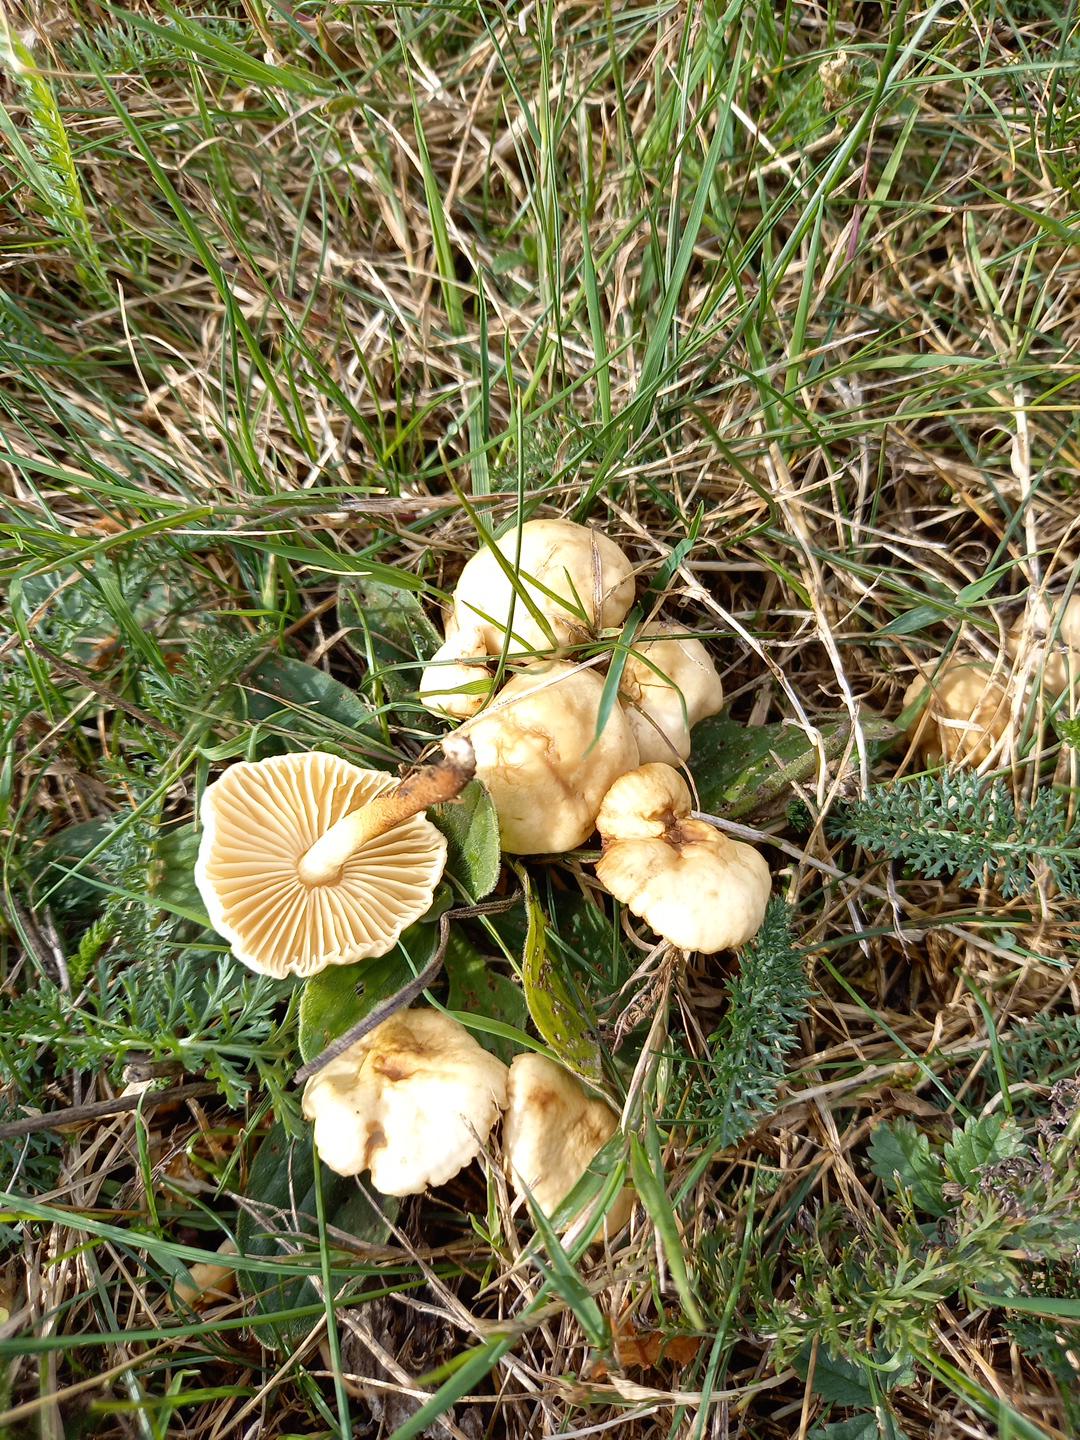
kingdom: Fungi
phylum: Basidiomycota
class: Agaricomycetes
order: Agaricales
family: Marasmiaceae
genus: Marasmius
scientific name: Marasmius oreades
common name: elledans-bruskhat
